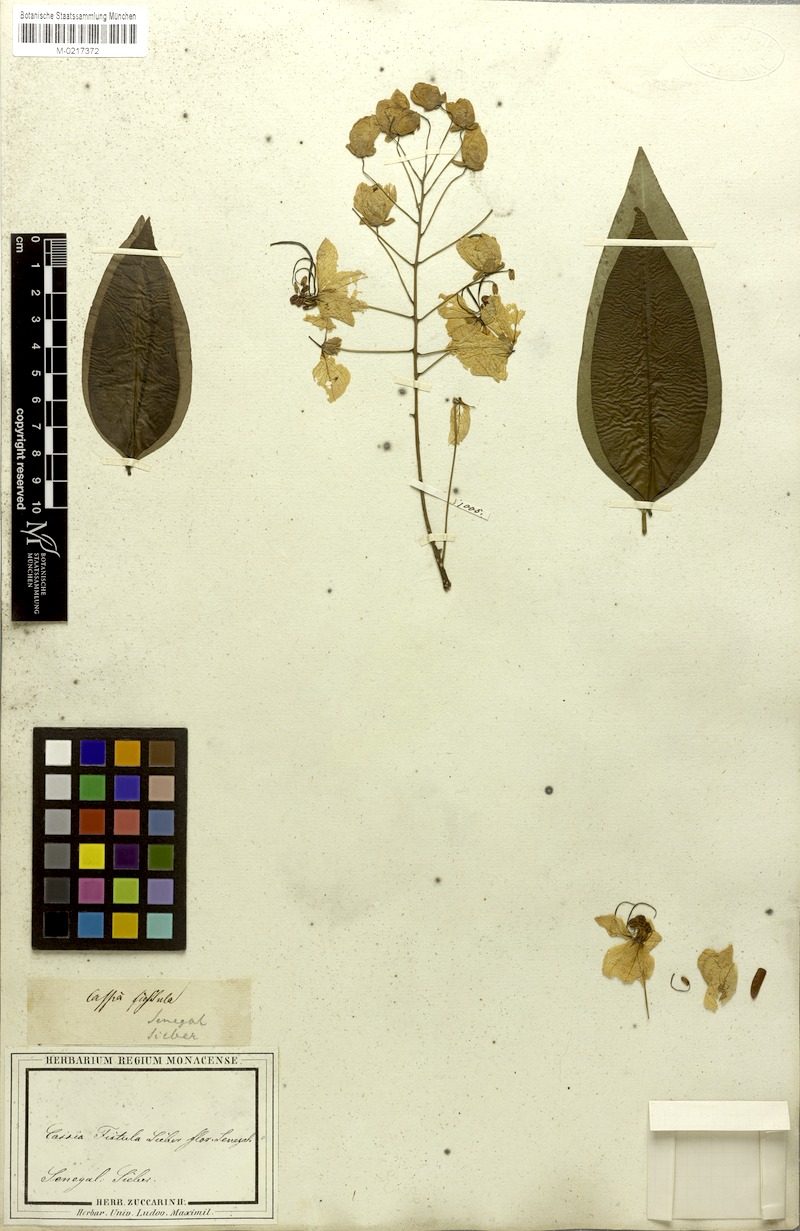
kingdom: Plantae
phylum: Tracheophyta
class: Magnoliopsida
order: Fabales
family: Fabaceae
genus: Cassia
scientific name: Cassia fistula
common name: Golden shower
